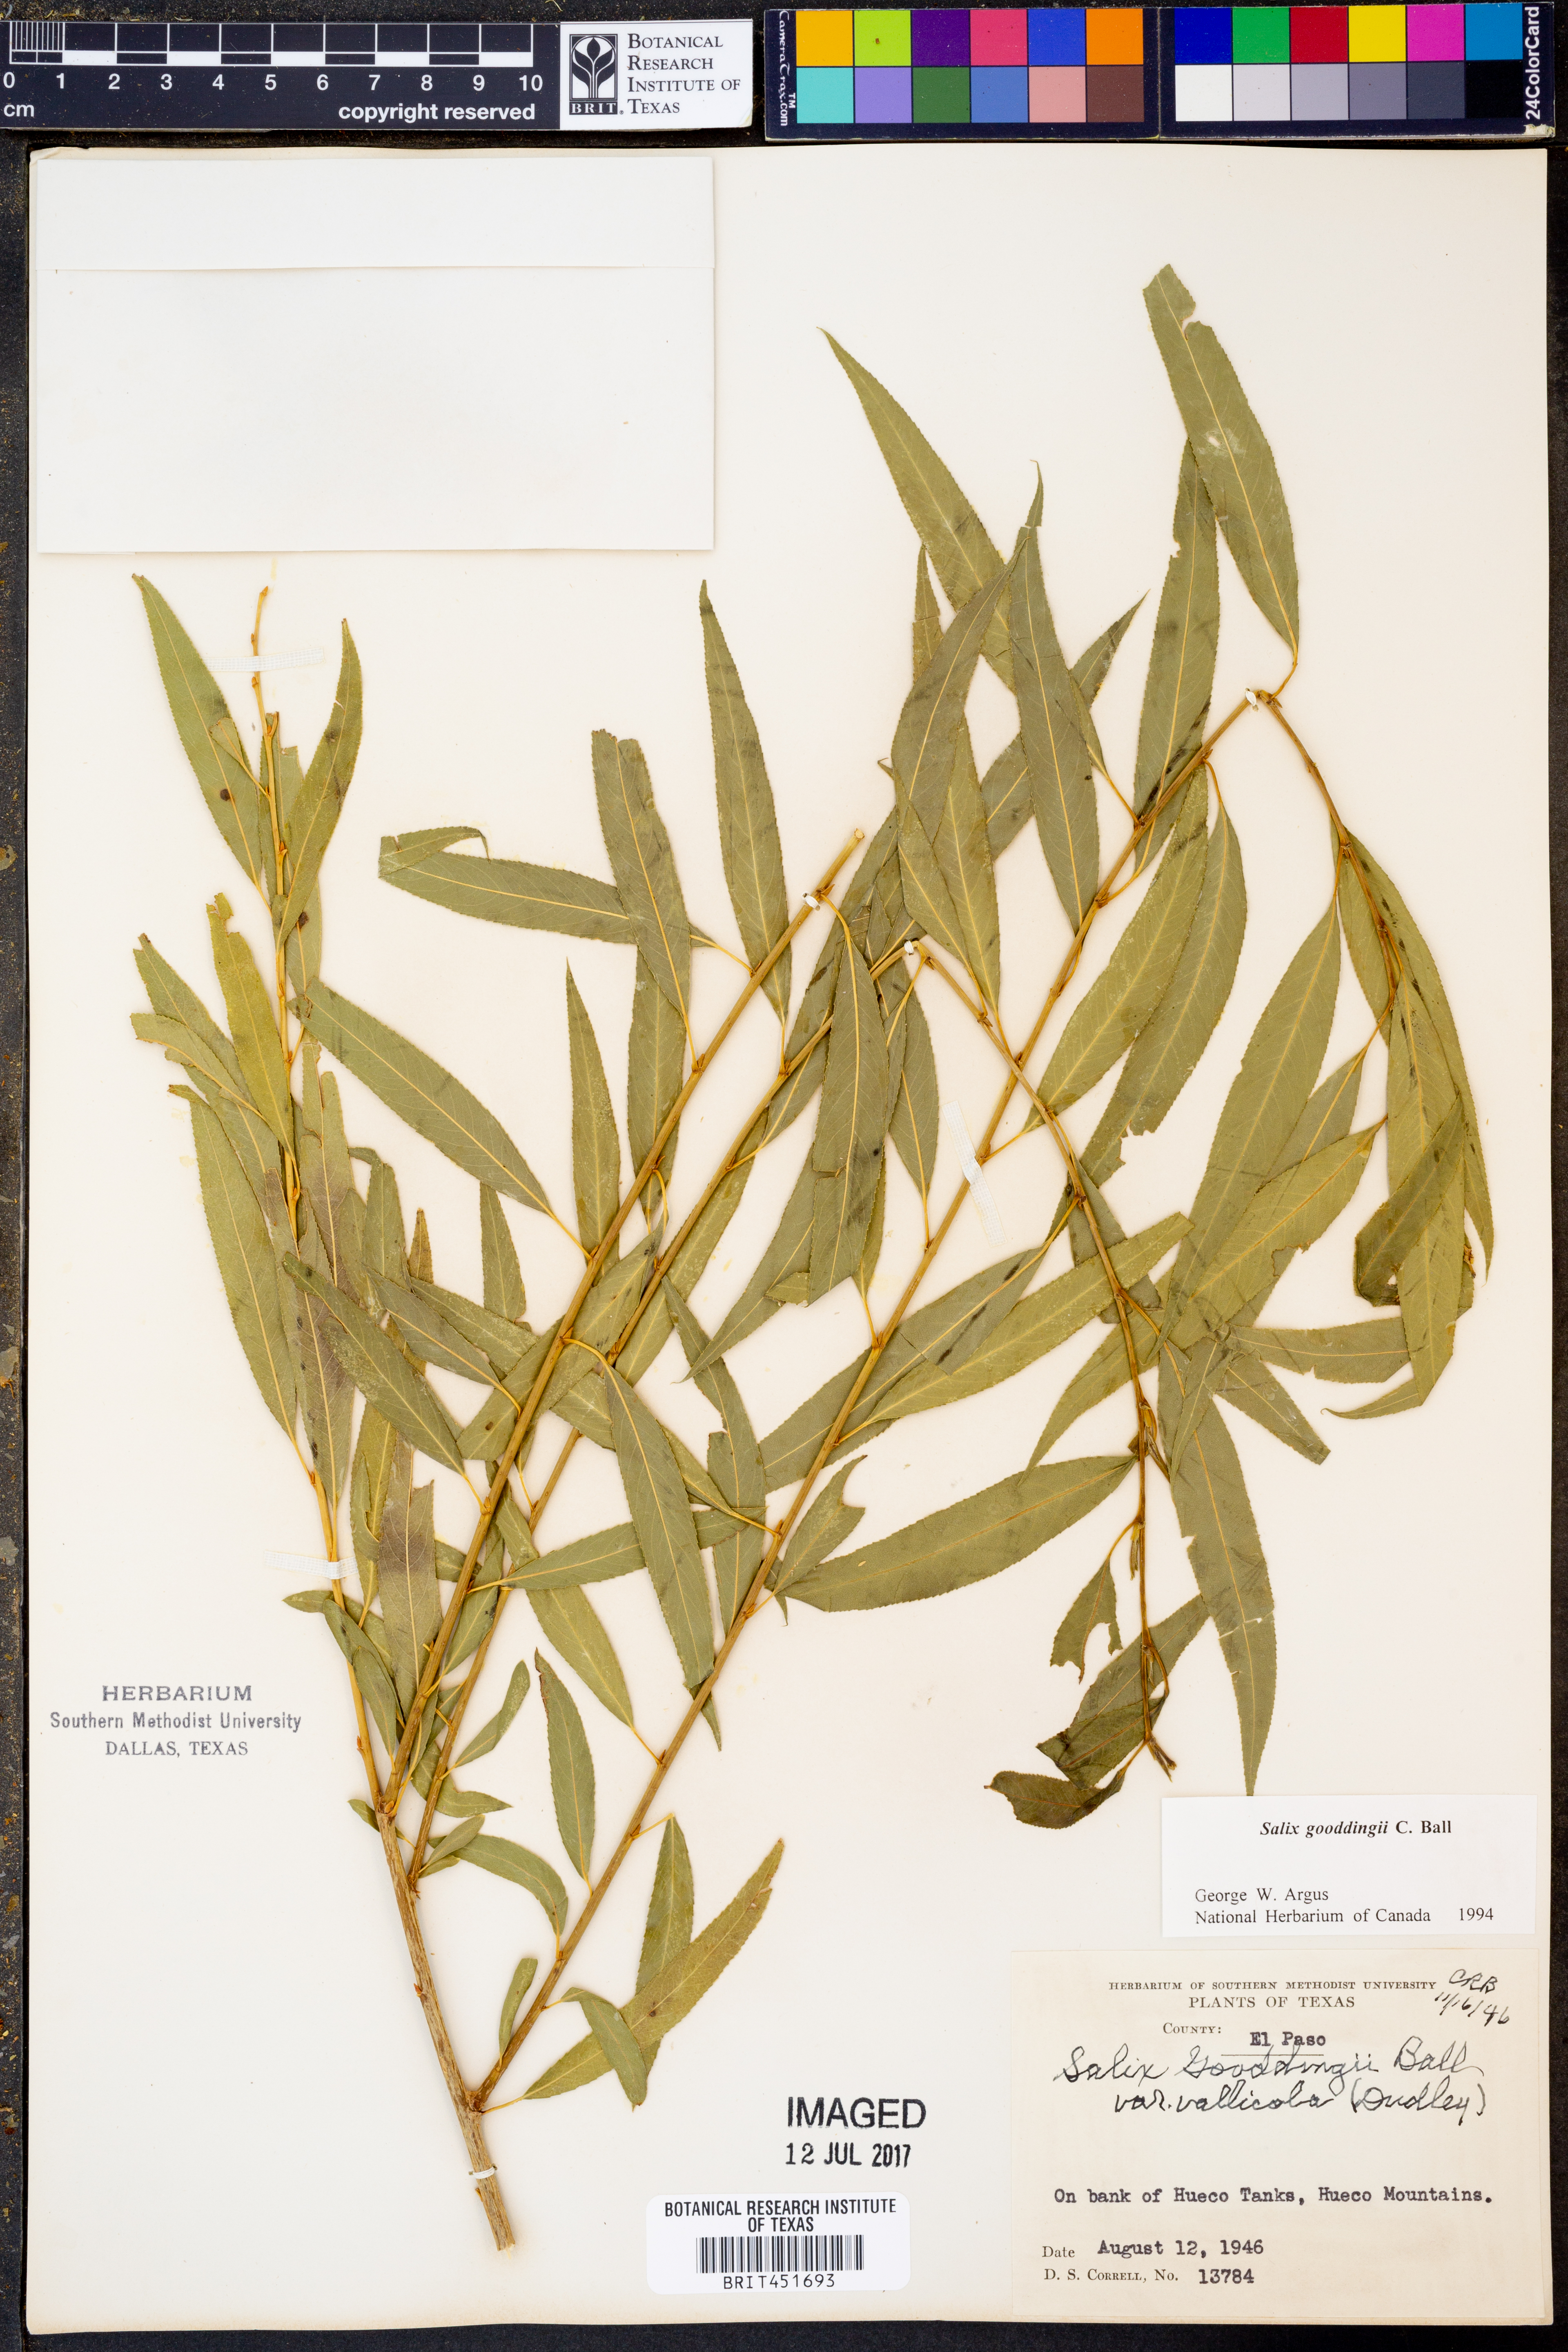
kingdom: Plantae
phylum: Tracheophyta
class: Magnoliopsida
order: Malpighiales
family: Salicaceae
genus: Salix
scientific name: Salix gooddingii
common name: Goodding's willow
